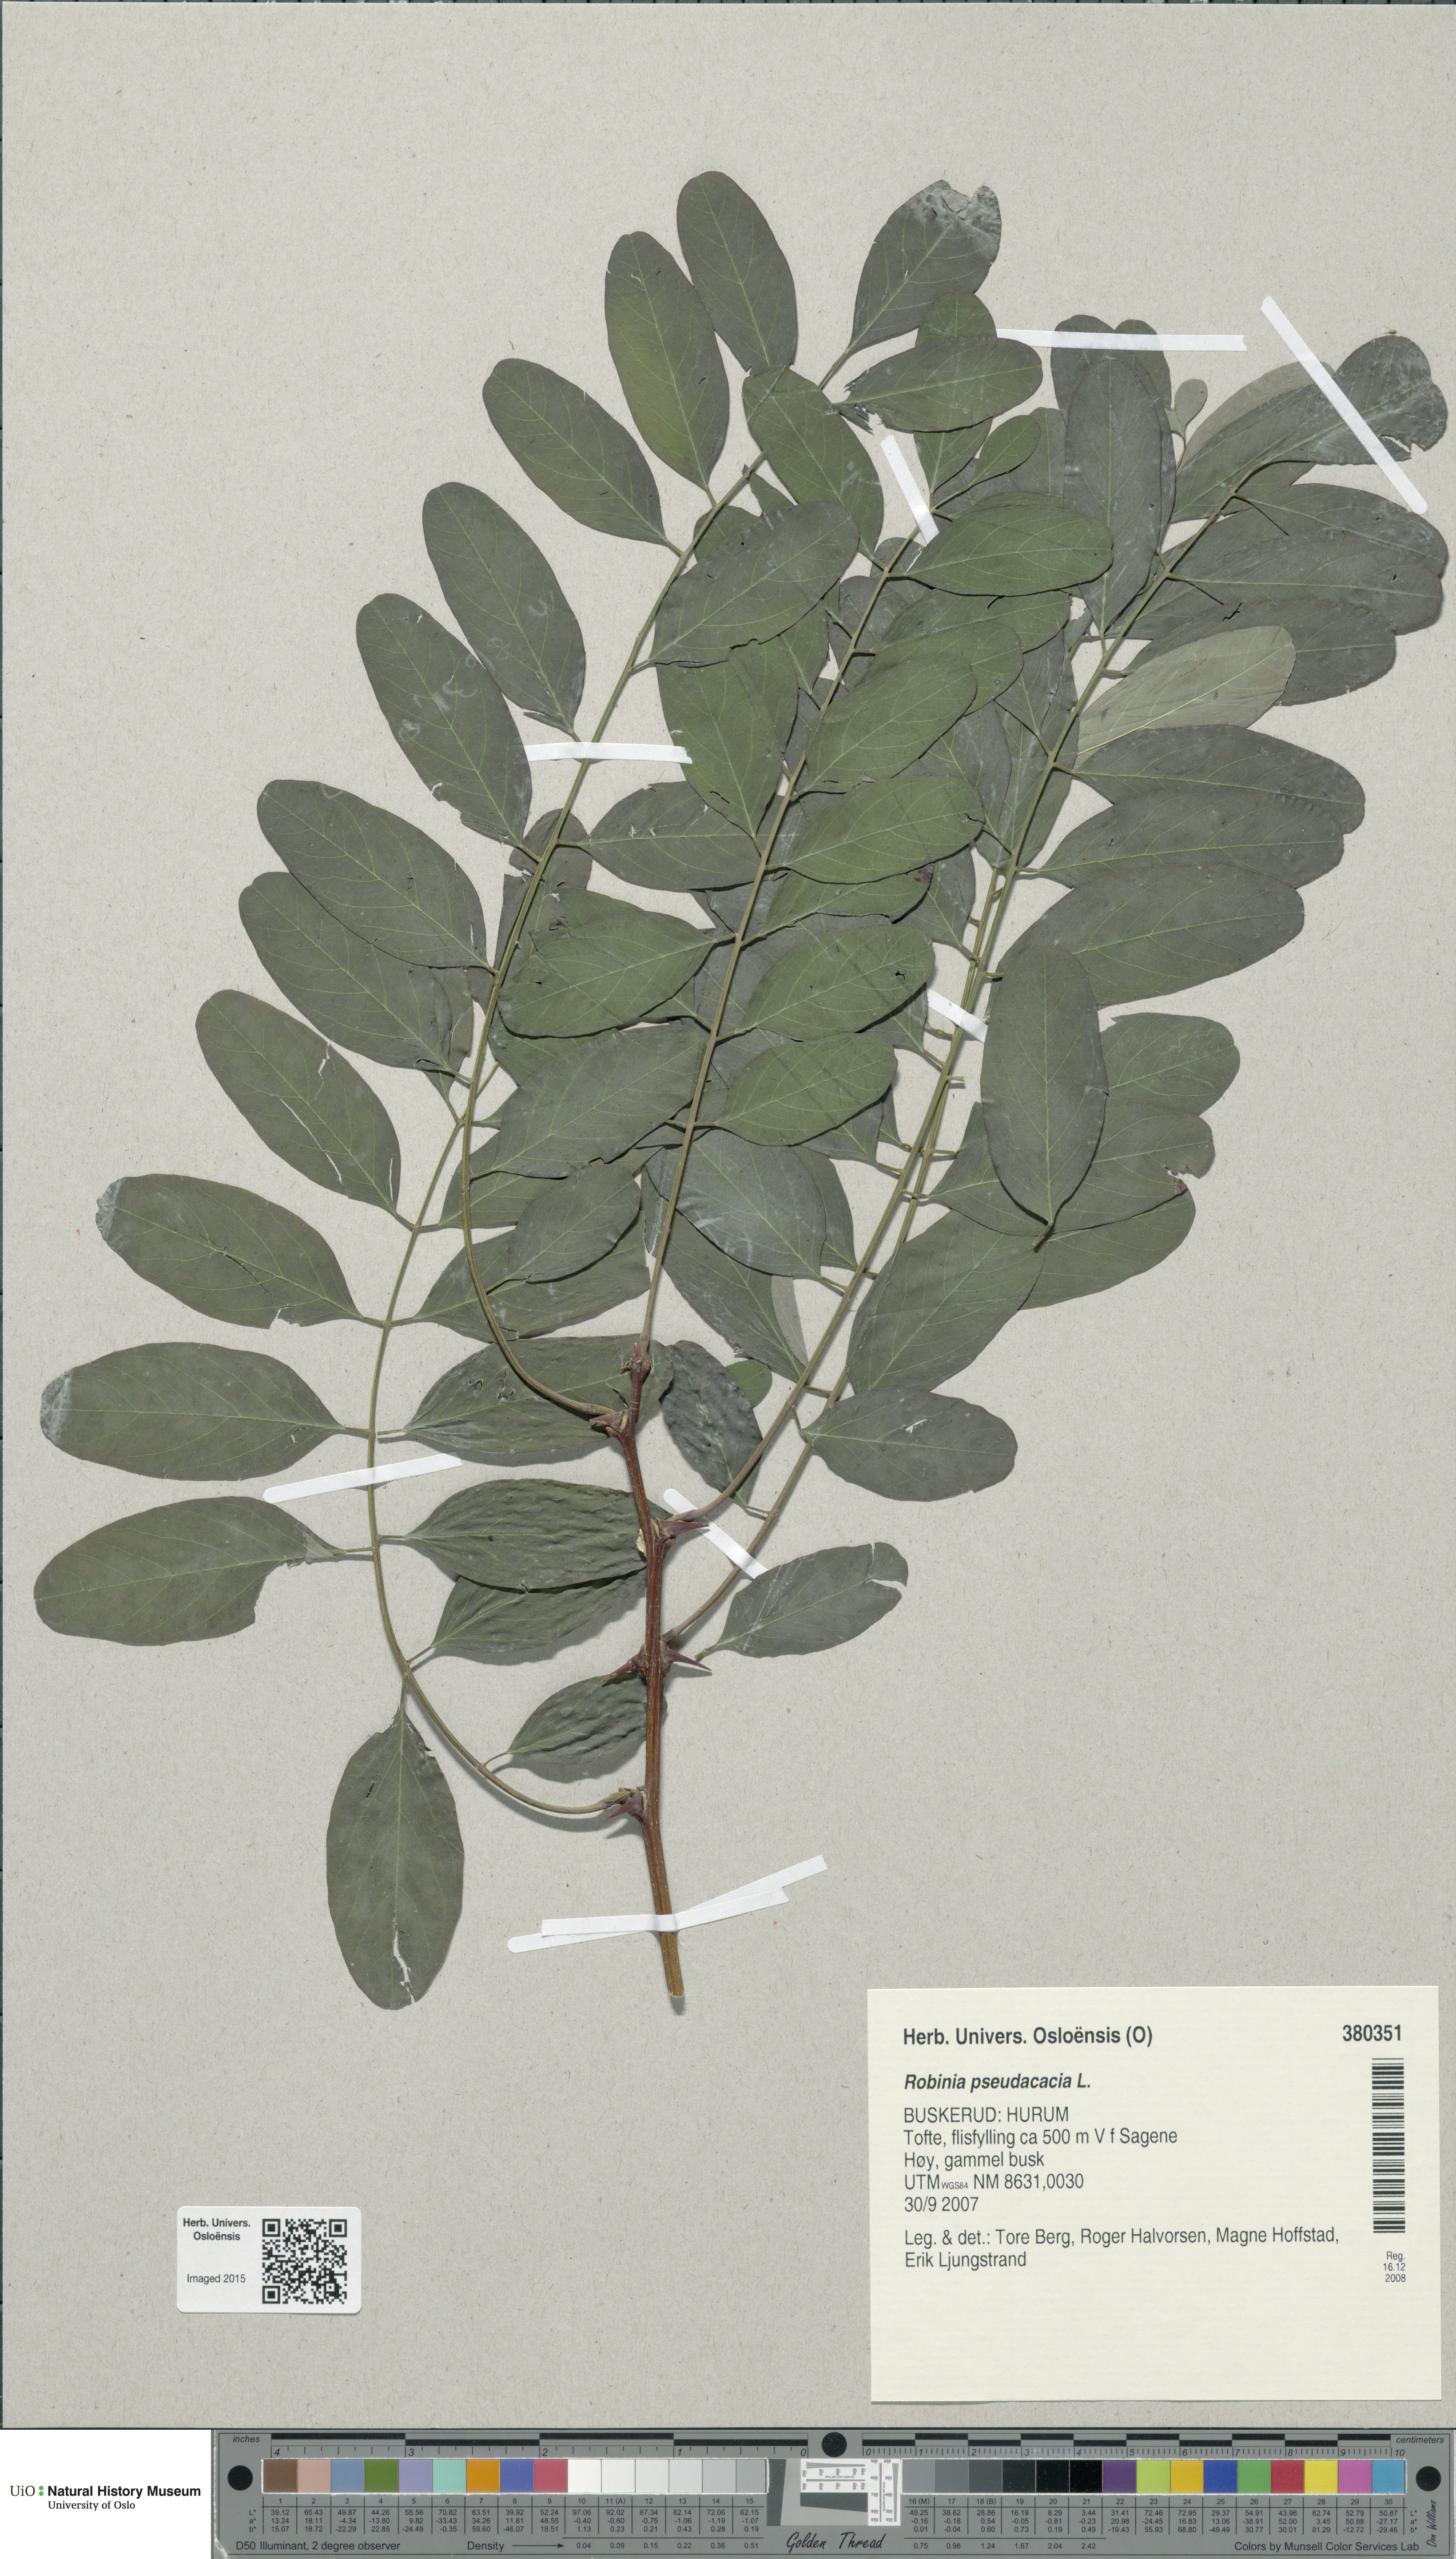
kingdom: Plantae
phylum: Tracheophyta
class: Magnoliopsida
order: Fabales
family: Fabaceae
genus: Robinia
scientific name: Robinia pseudoacacia
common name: Black locust
